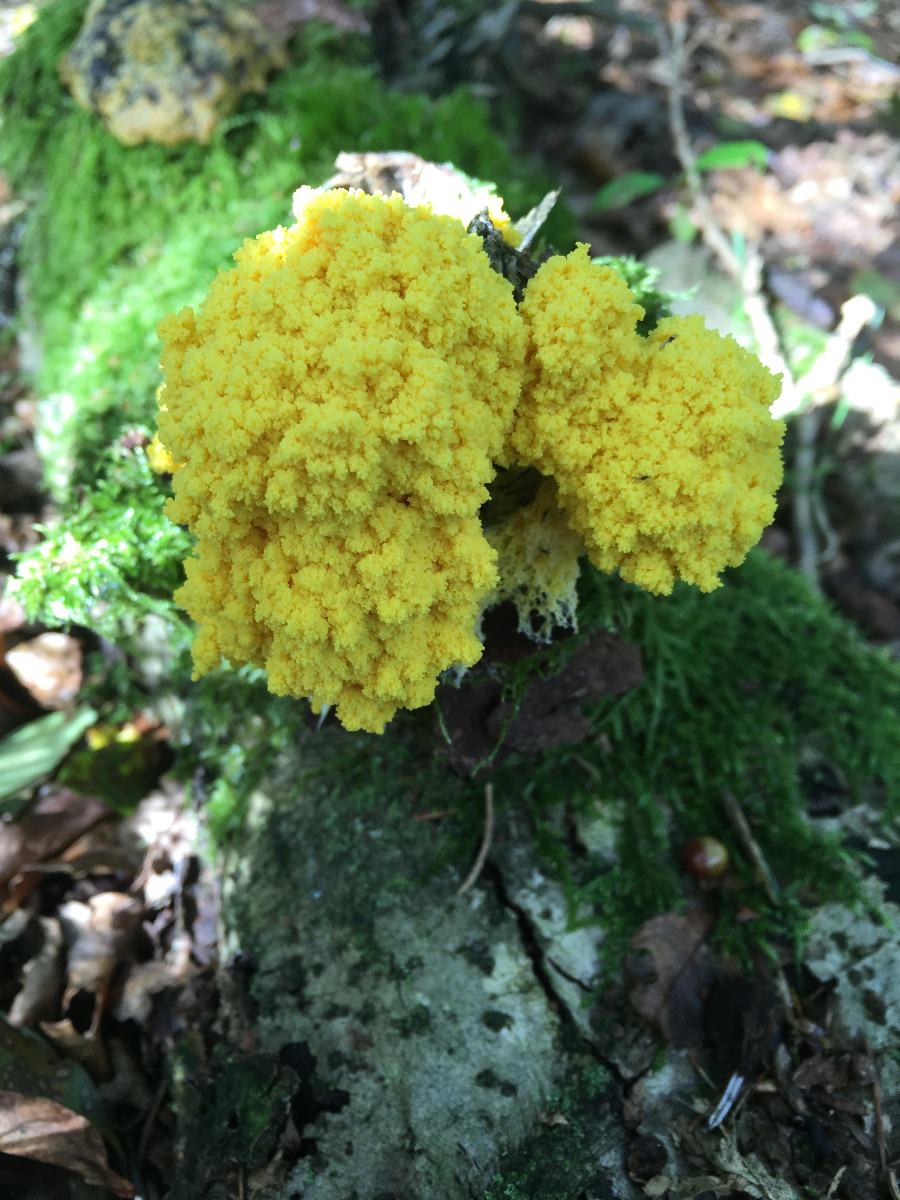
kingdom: Protozoa
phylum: Mycetozoa
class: Myxomycetes
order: Physarales
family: Physaraceae
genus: Fuligo
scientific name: Fuligo septica
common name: gul troldsmør
